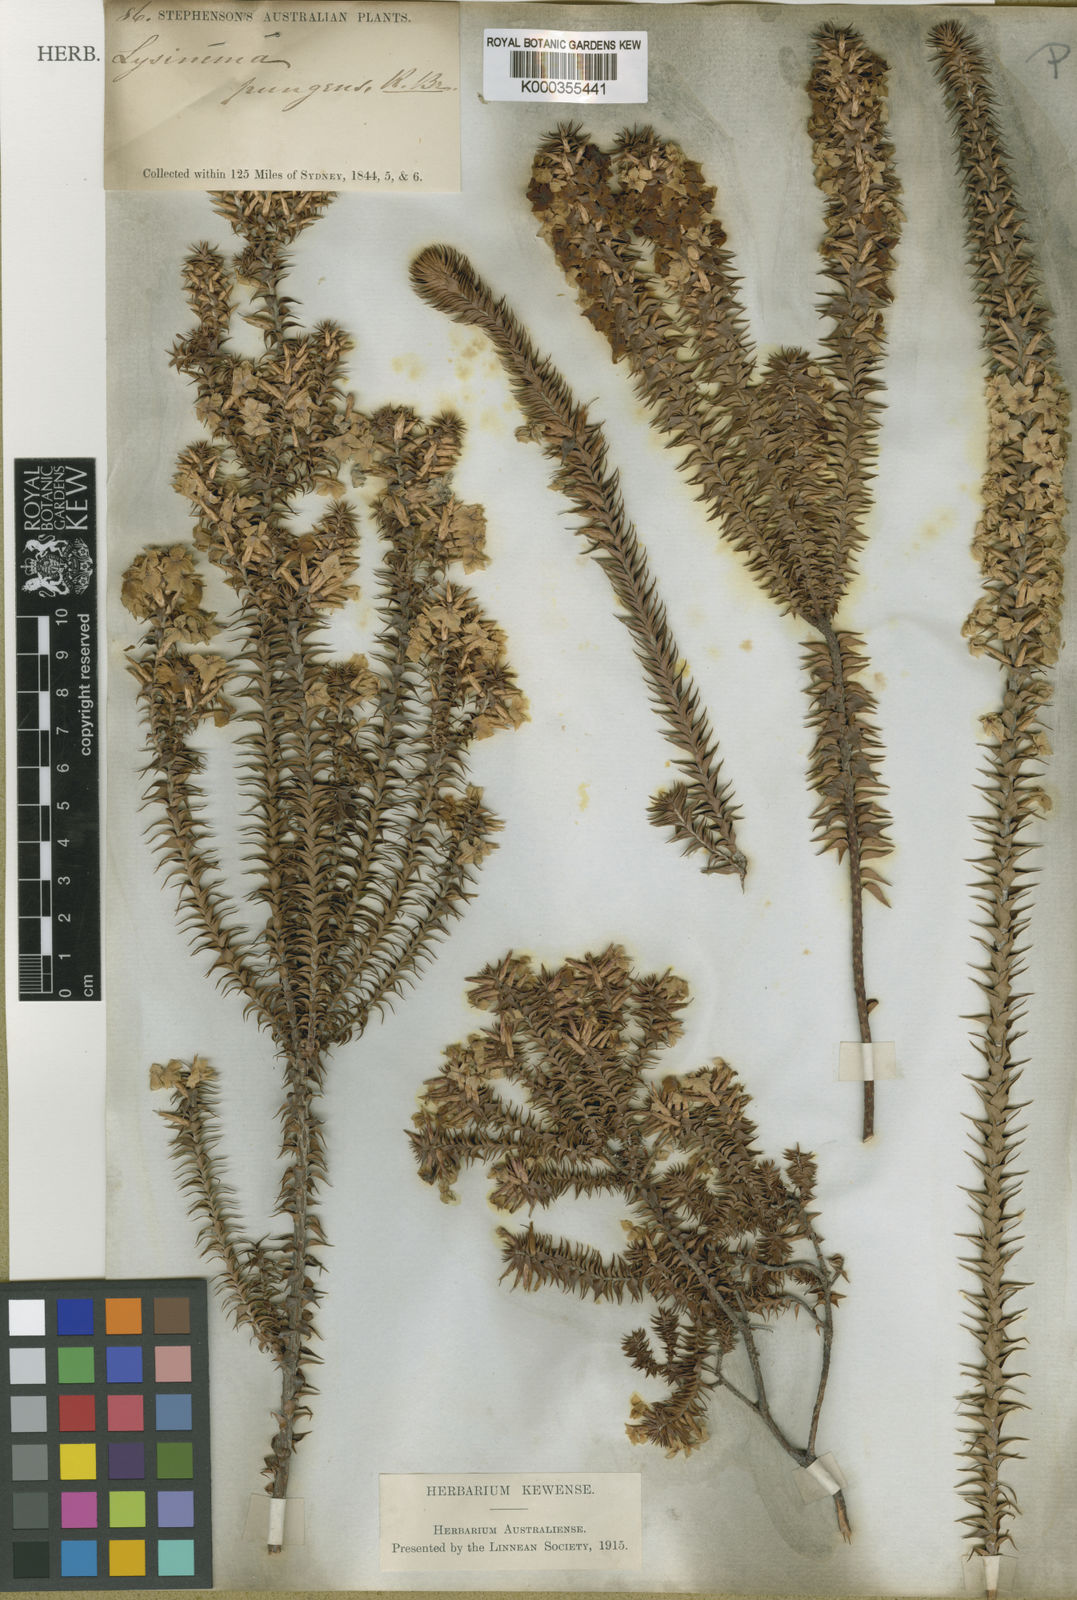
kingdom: Plantae
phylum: Tracheophyta
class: Magnoliopsida
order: Ericales
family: Ericaceae
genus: Woollsia
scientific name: Woollsia pungens
